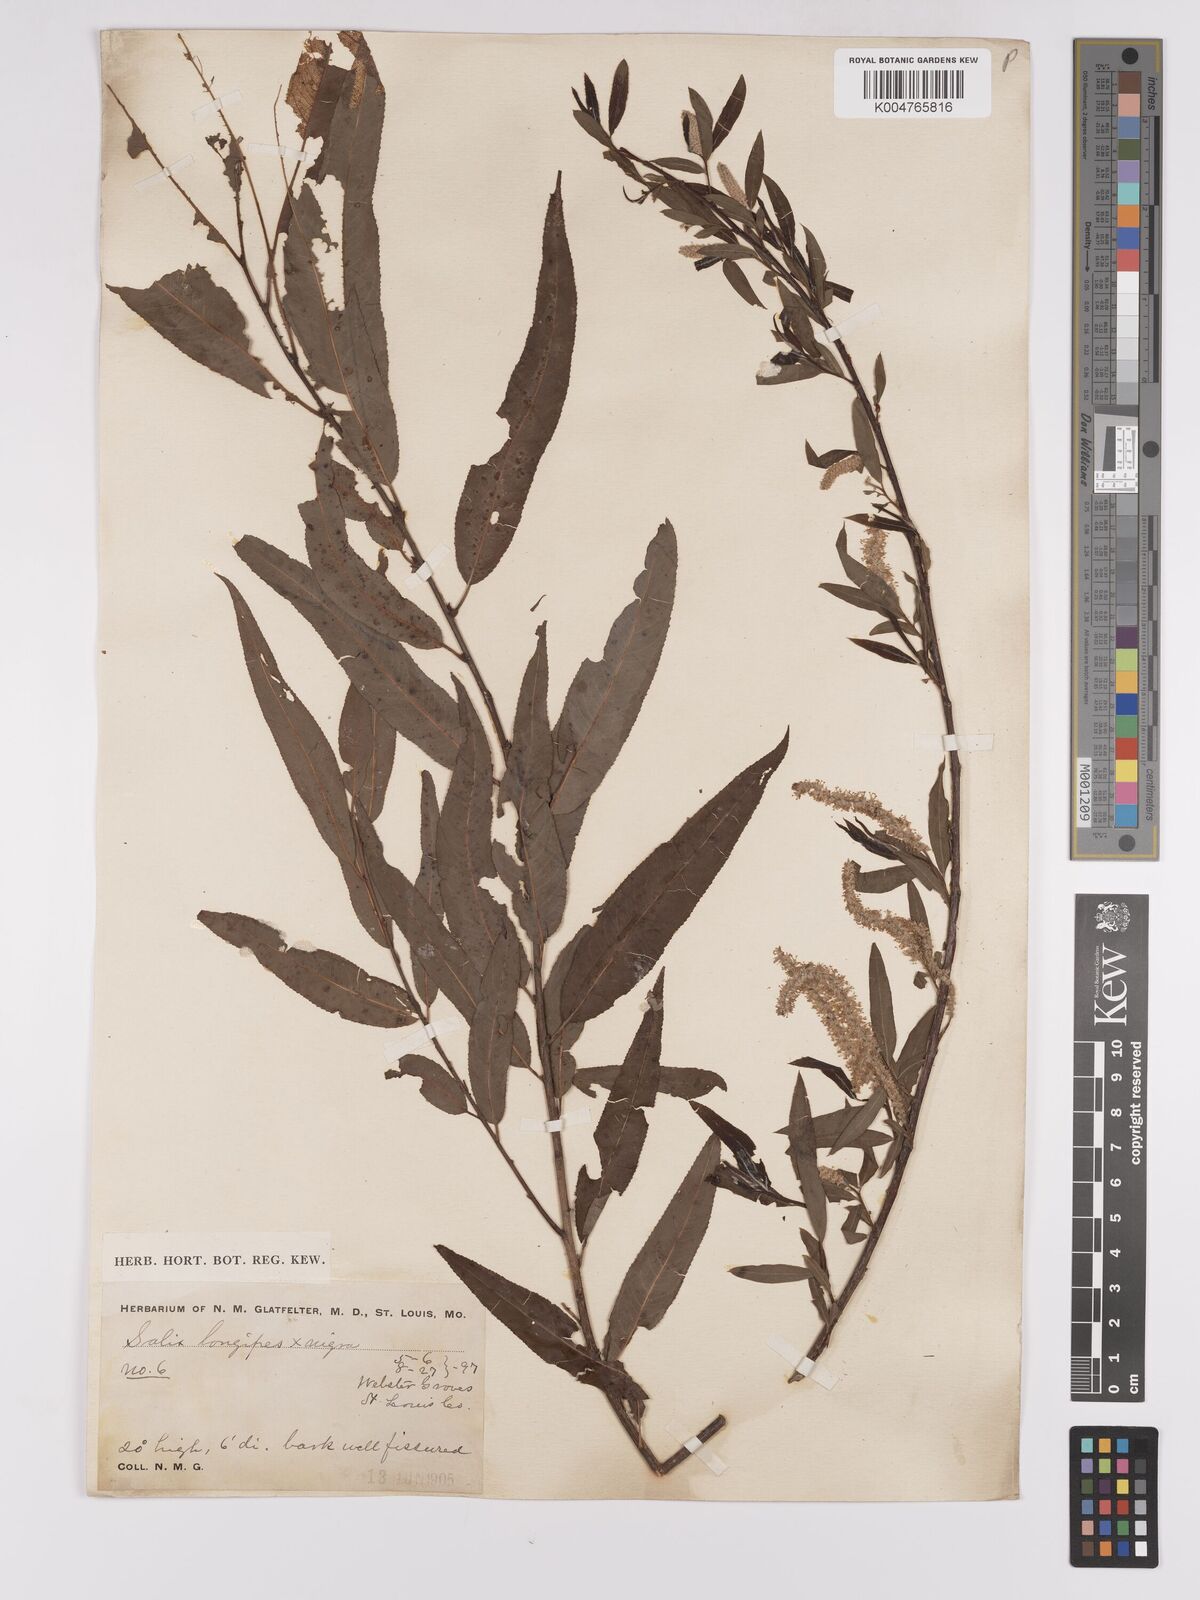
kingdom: Plantae
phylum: Tracheophyta
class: Magnoliopsida
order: Malpighiales
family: Salicaceae
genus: Salix
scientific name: Salix fruticulosa
